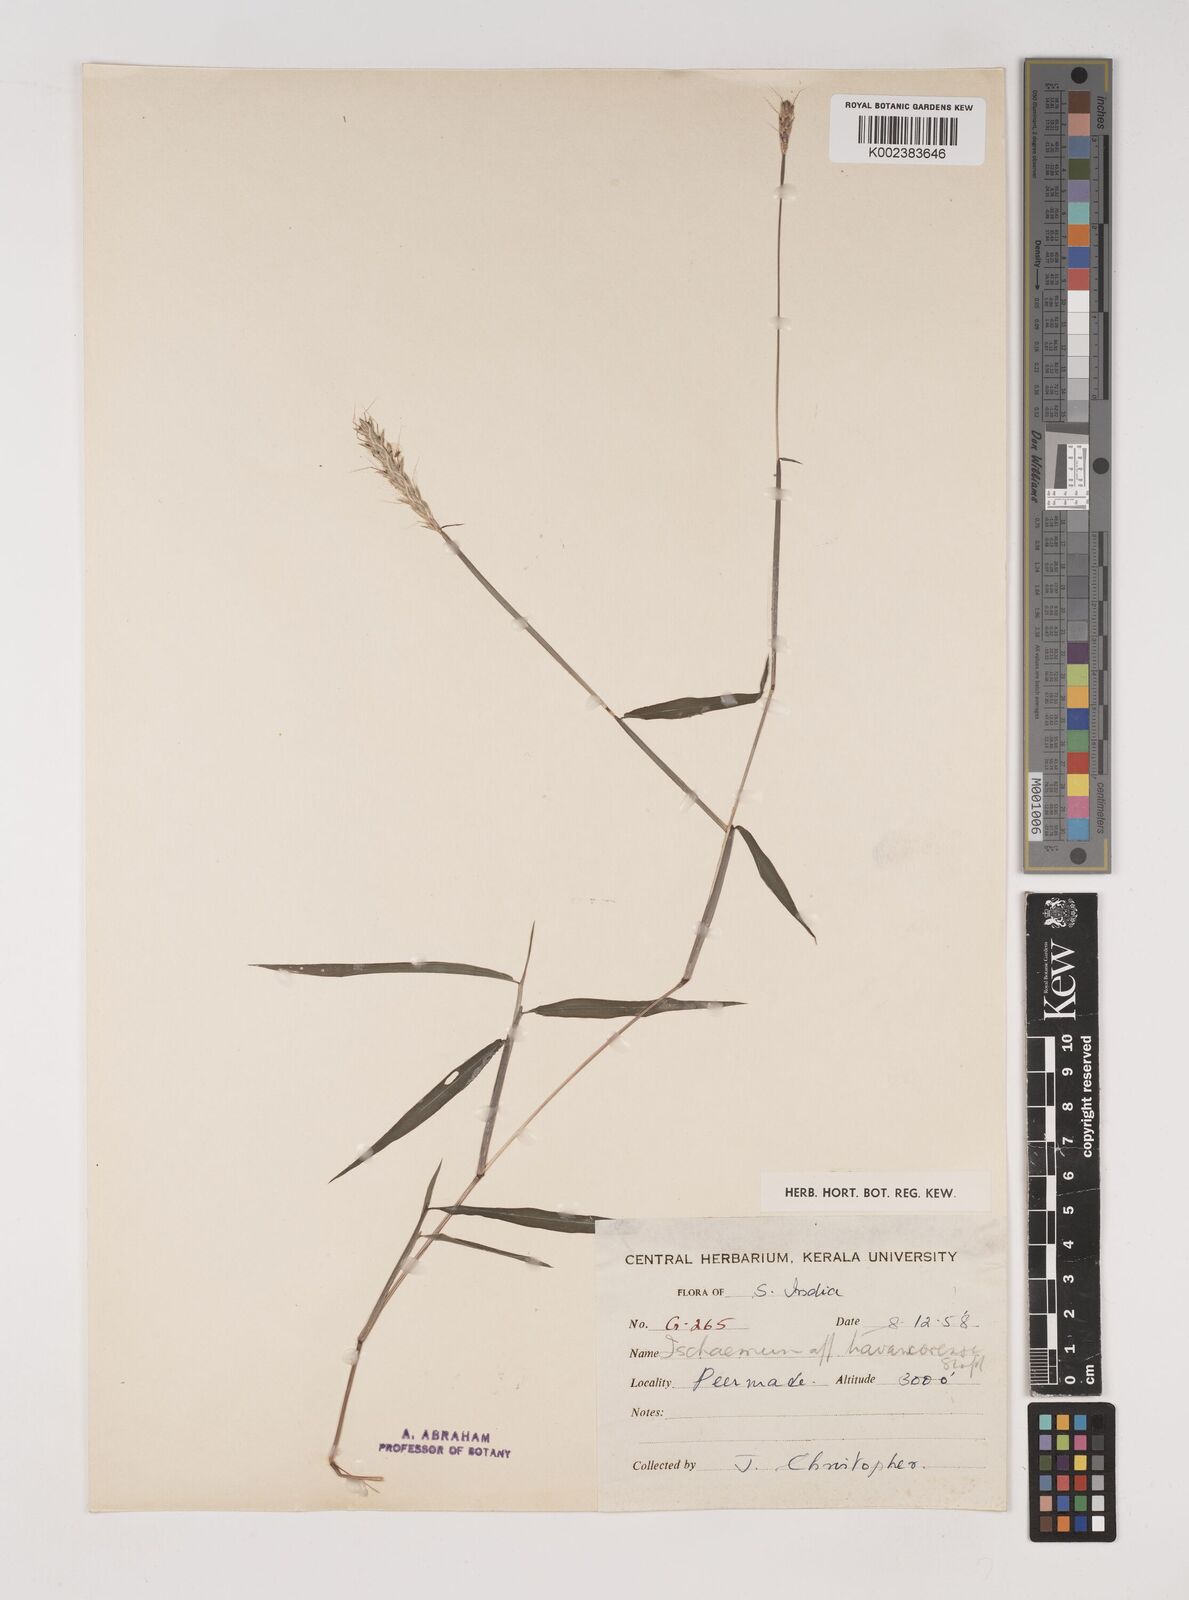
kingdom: Plantae
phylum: Tracheophyta
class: Liliopsida
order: Poales
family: Poaceae
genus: Ischaemum
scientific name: Ischaemum
